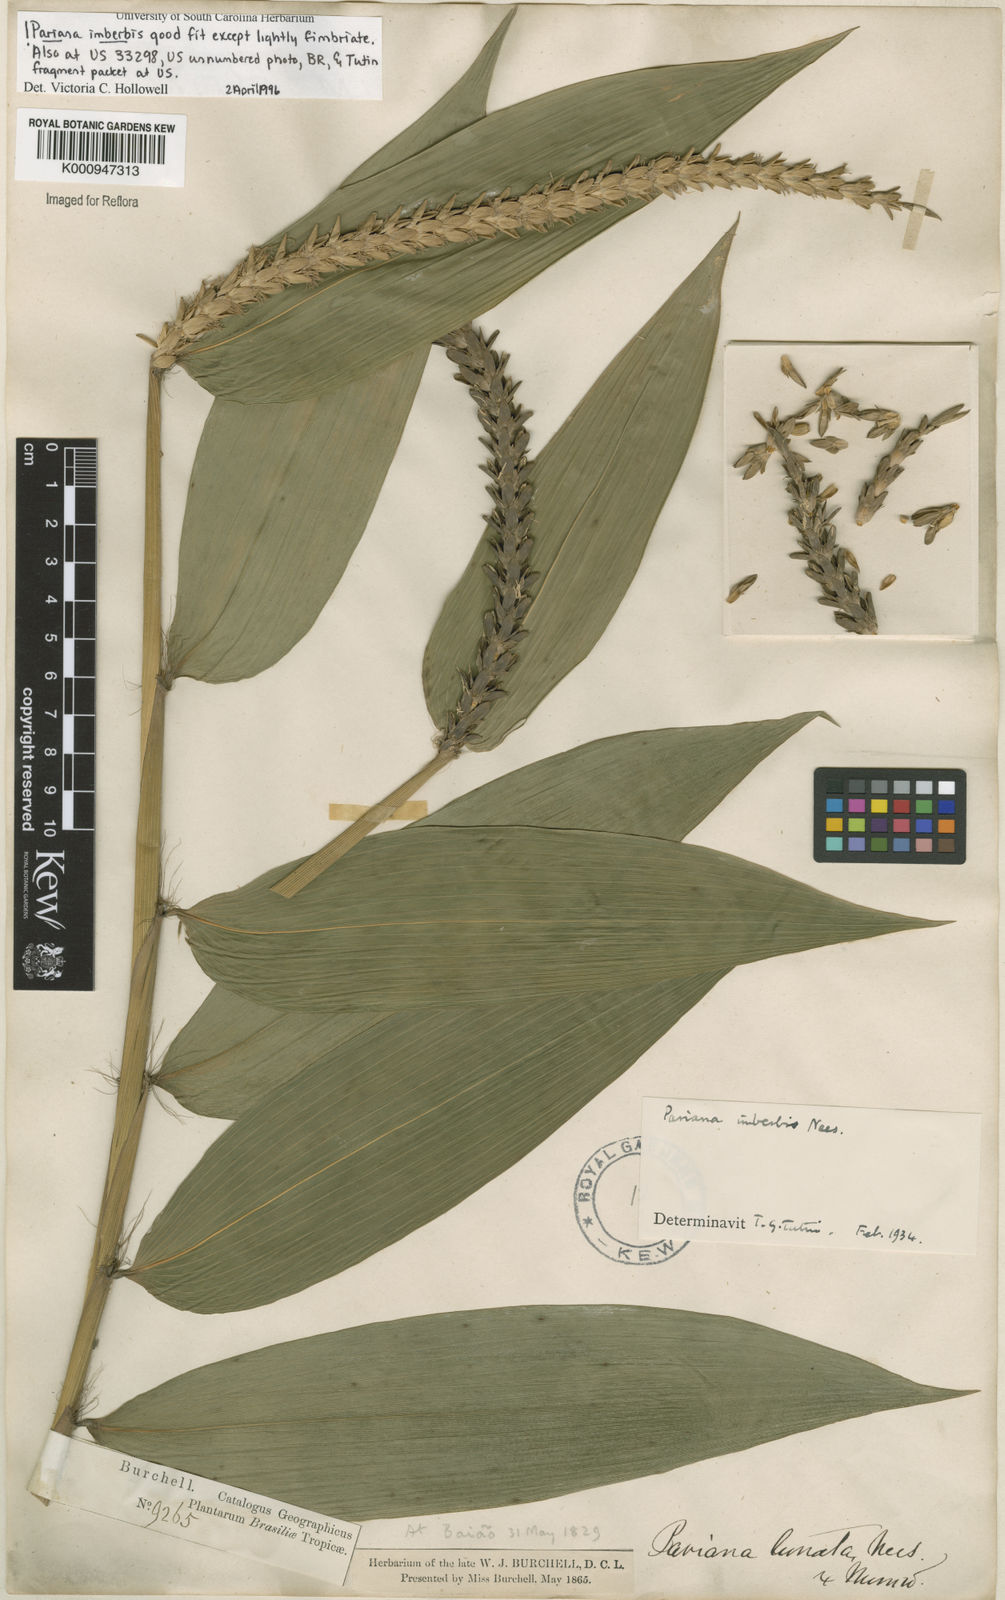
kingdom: Plantae
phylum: Tracheophyta
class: Liliopsida
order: Poales
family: Poaceae
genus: Pariana
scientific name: Pariana imberbis
